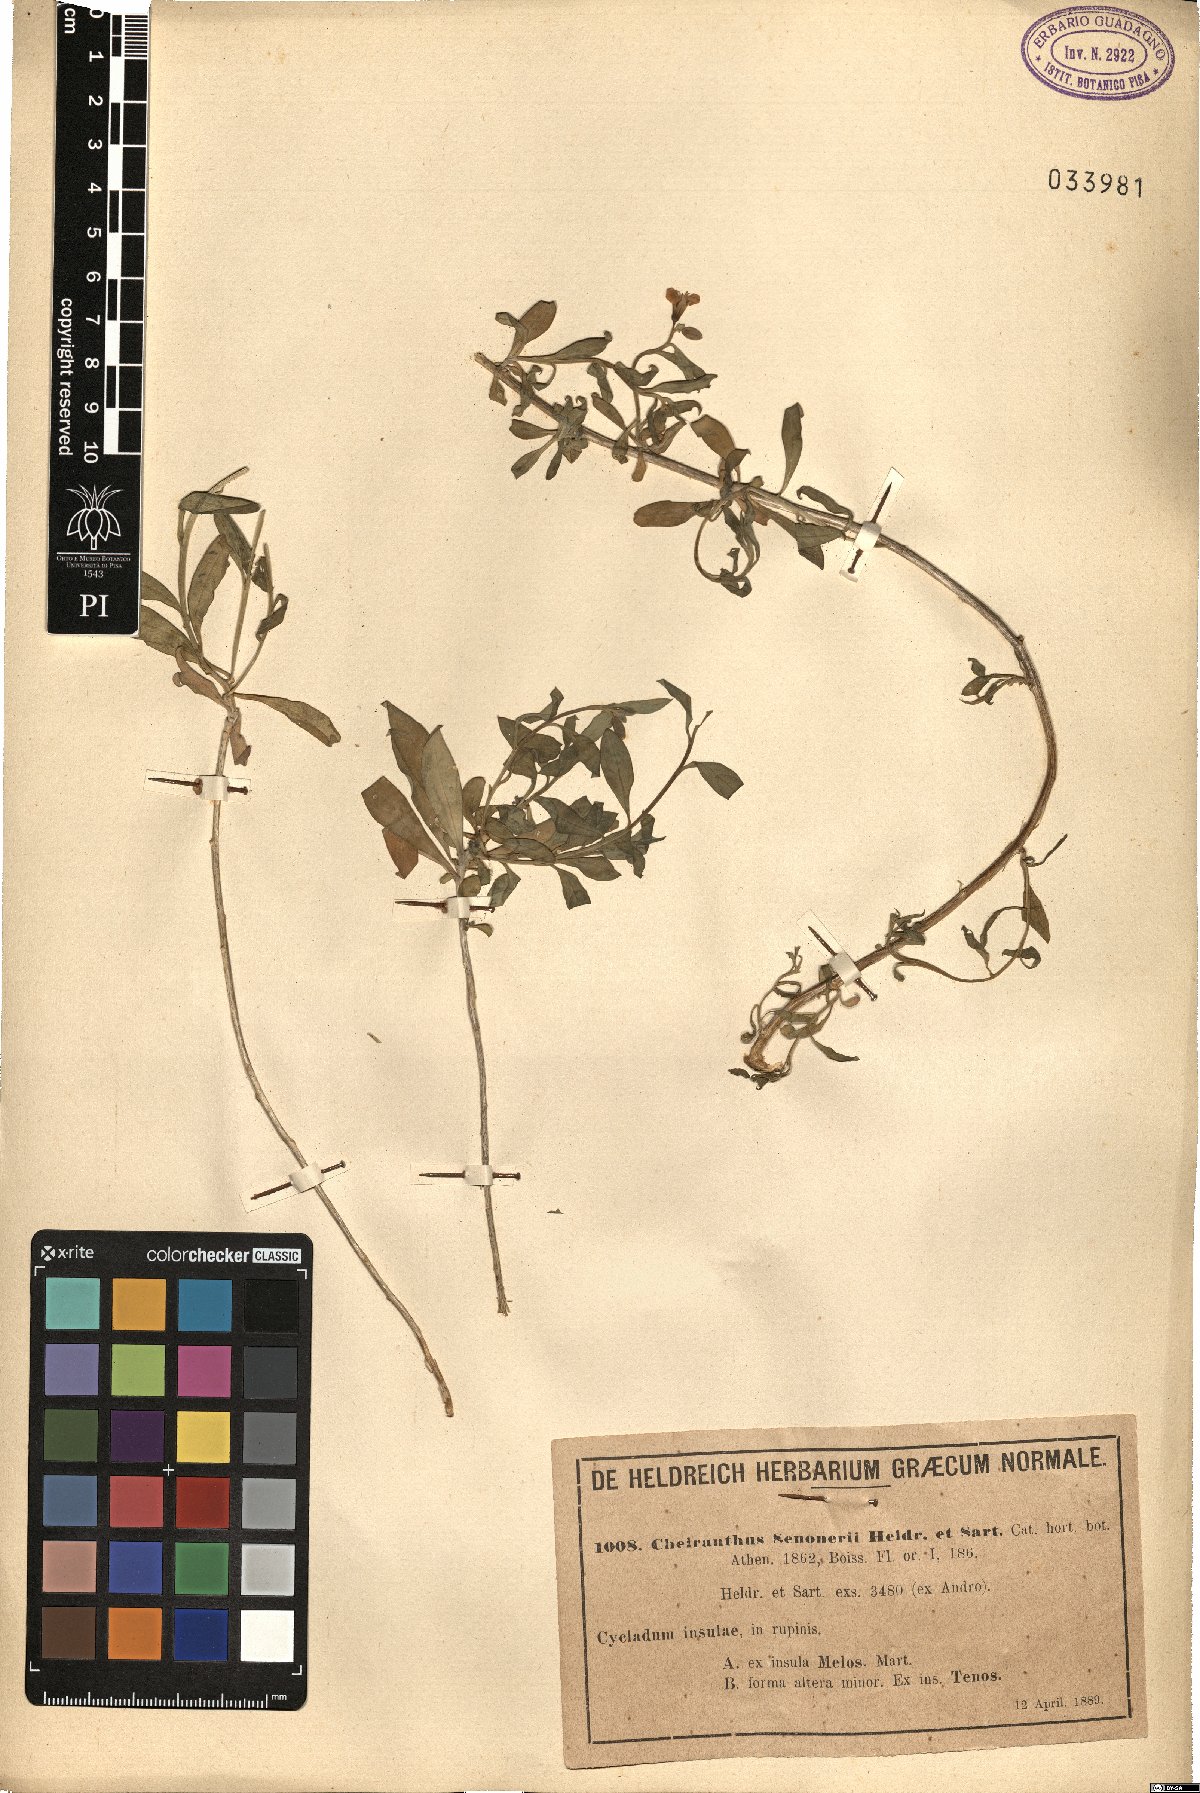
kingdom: Plantae
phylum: Tracheophyta
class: Magnoliopsida
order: Brassicales
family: Brassicaceae
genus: Erysimum
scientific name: Erysimum senoneri
